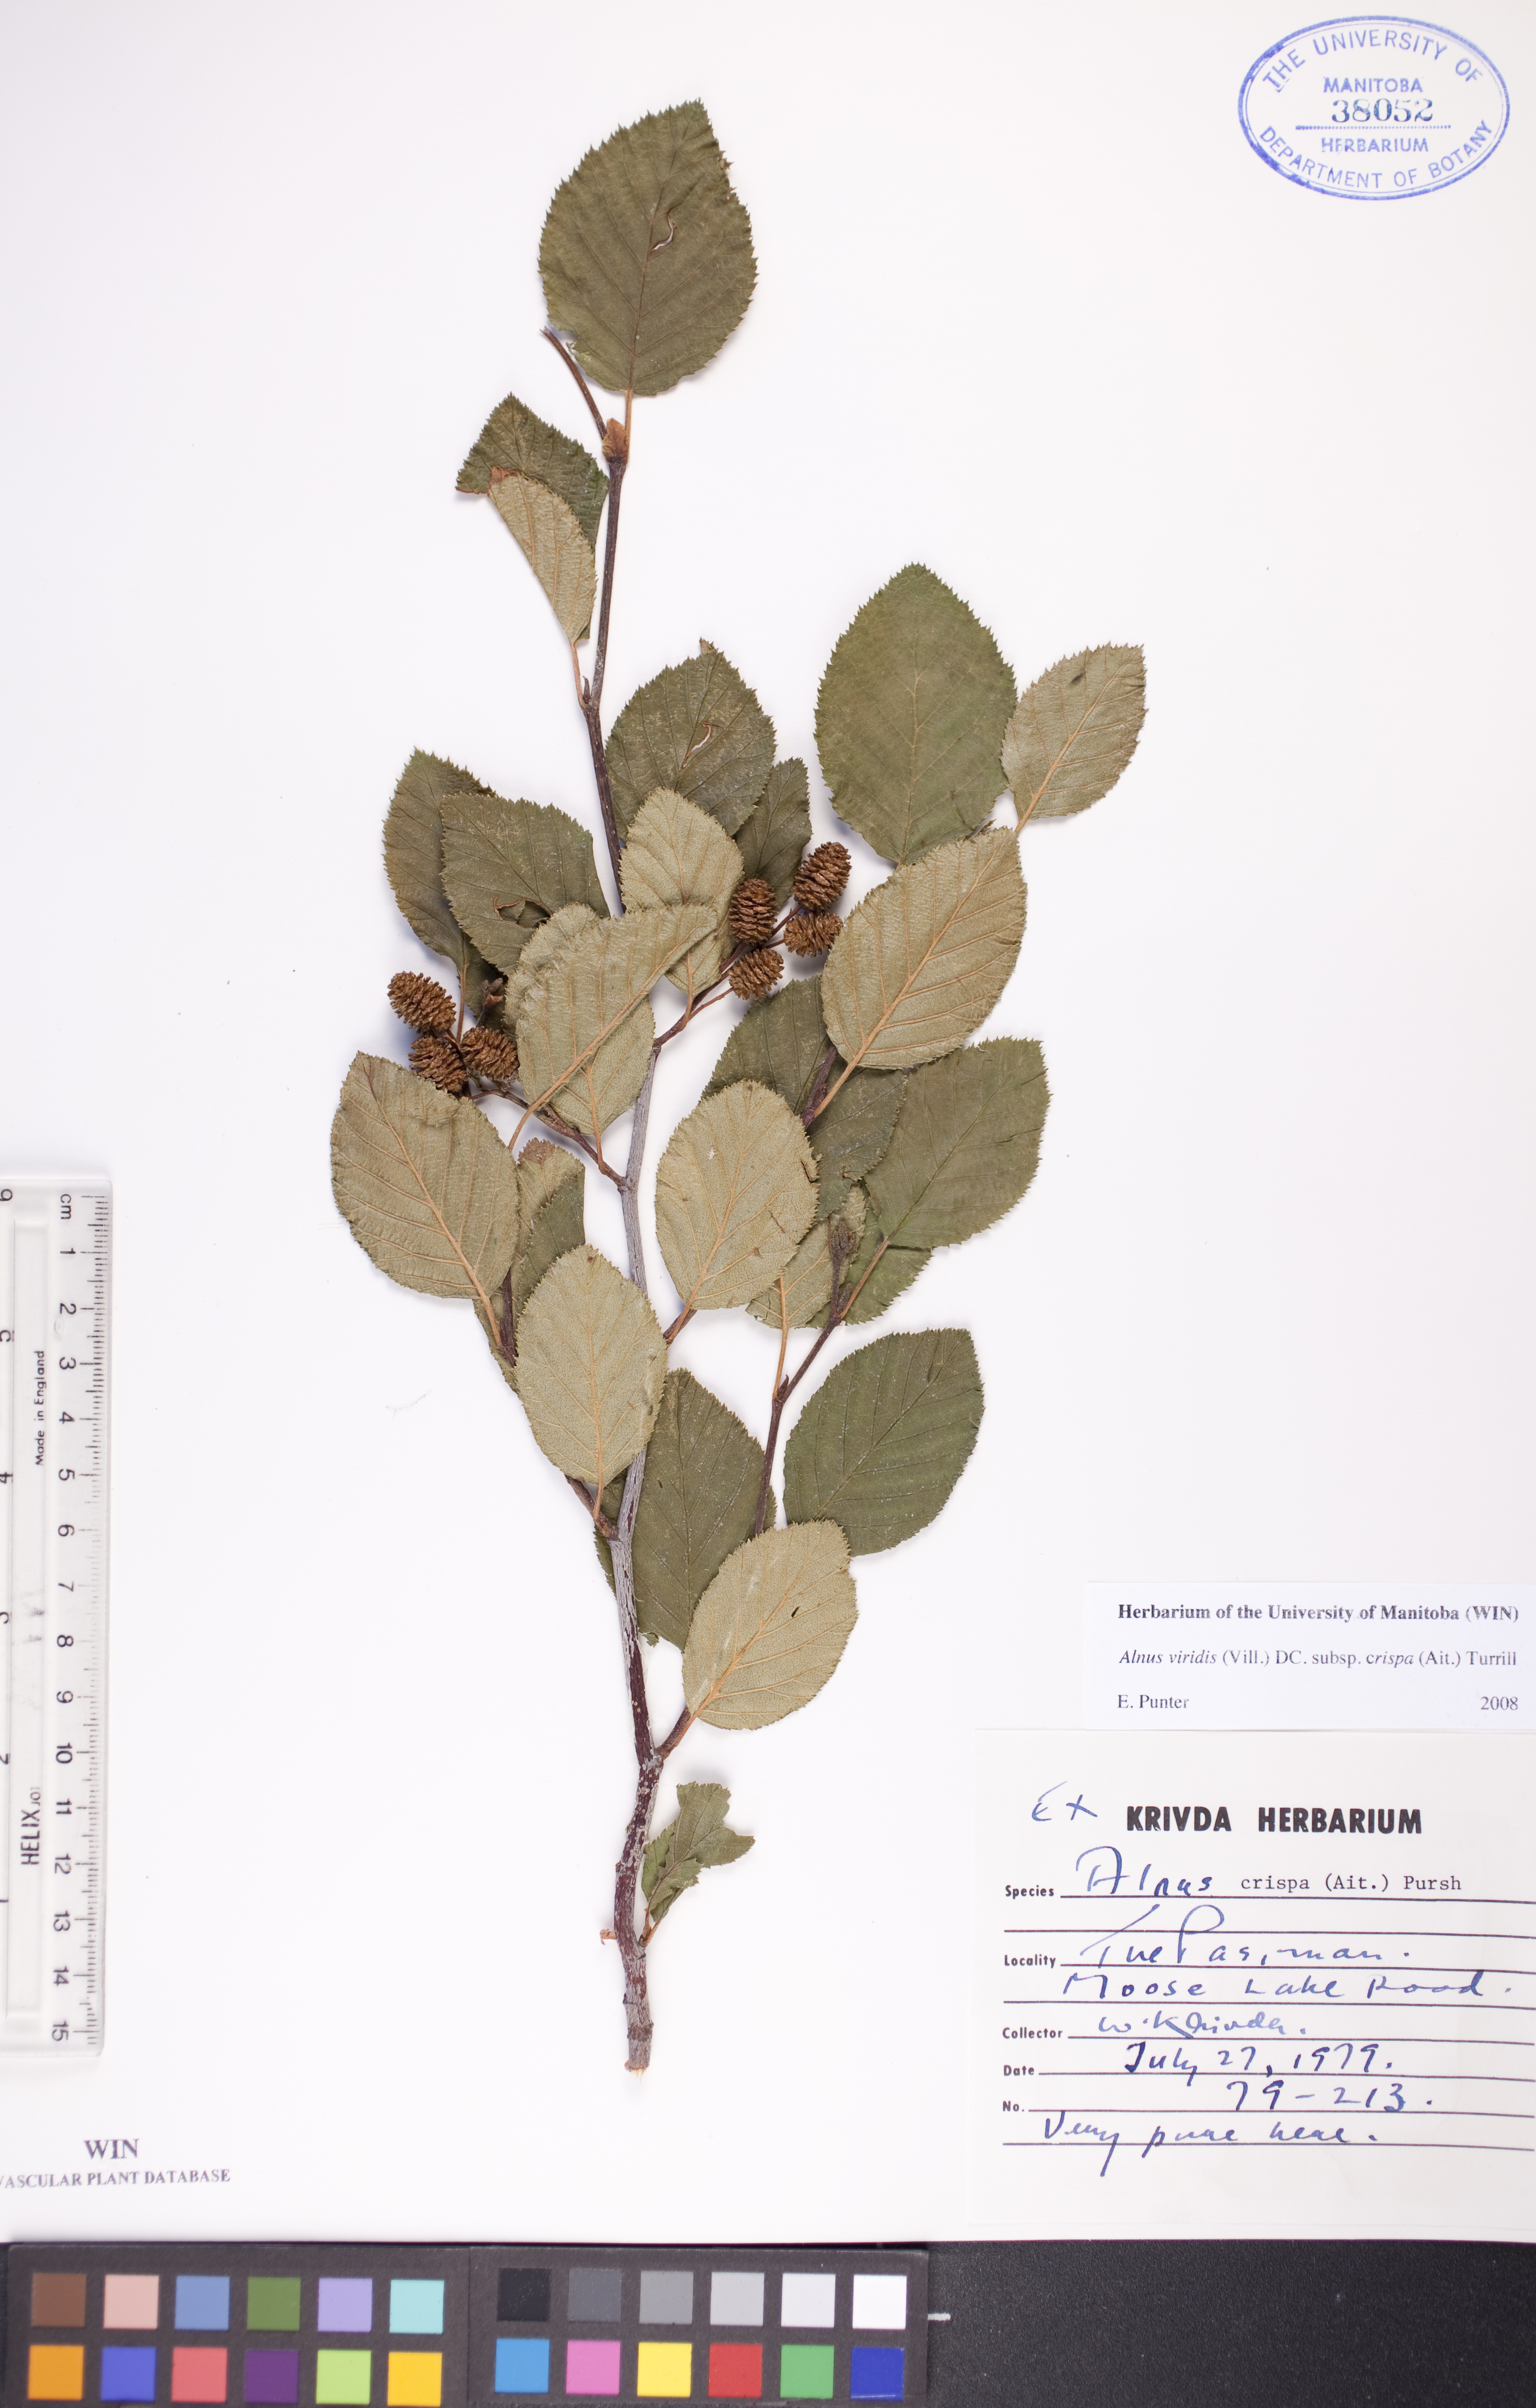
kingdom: Plantae
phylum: Tracheophyta
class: Magnoliopsida
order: Fagales
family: Betulaceae
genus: Alnus
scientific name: Alnus alnobetula
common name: Green alder
